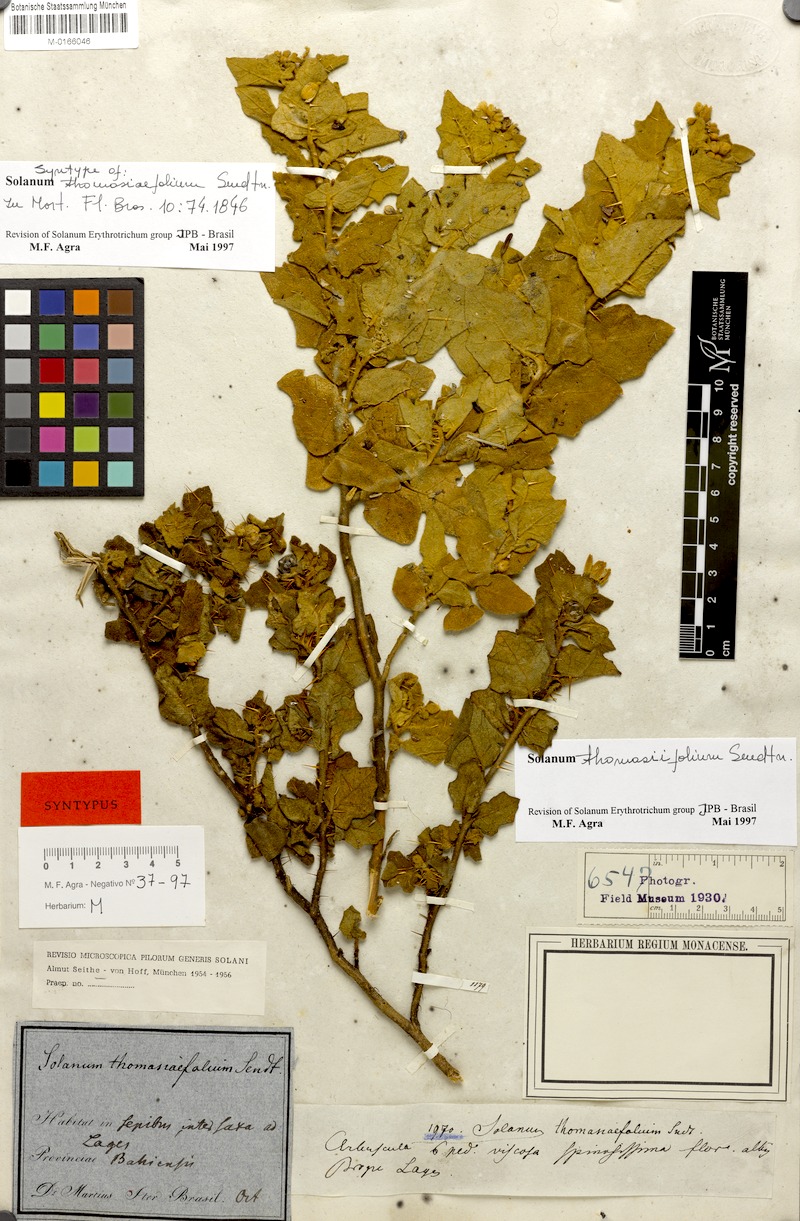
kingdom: Plantae
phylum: Tracheophyta
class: Magnoliopsida
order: Solanales
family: Solanaceae
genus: Solanum
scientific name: Solanum thomasiifolium
